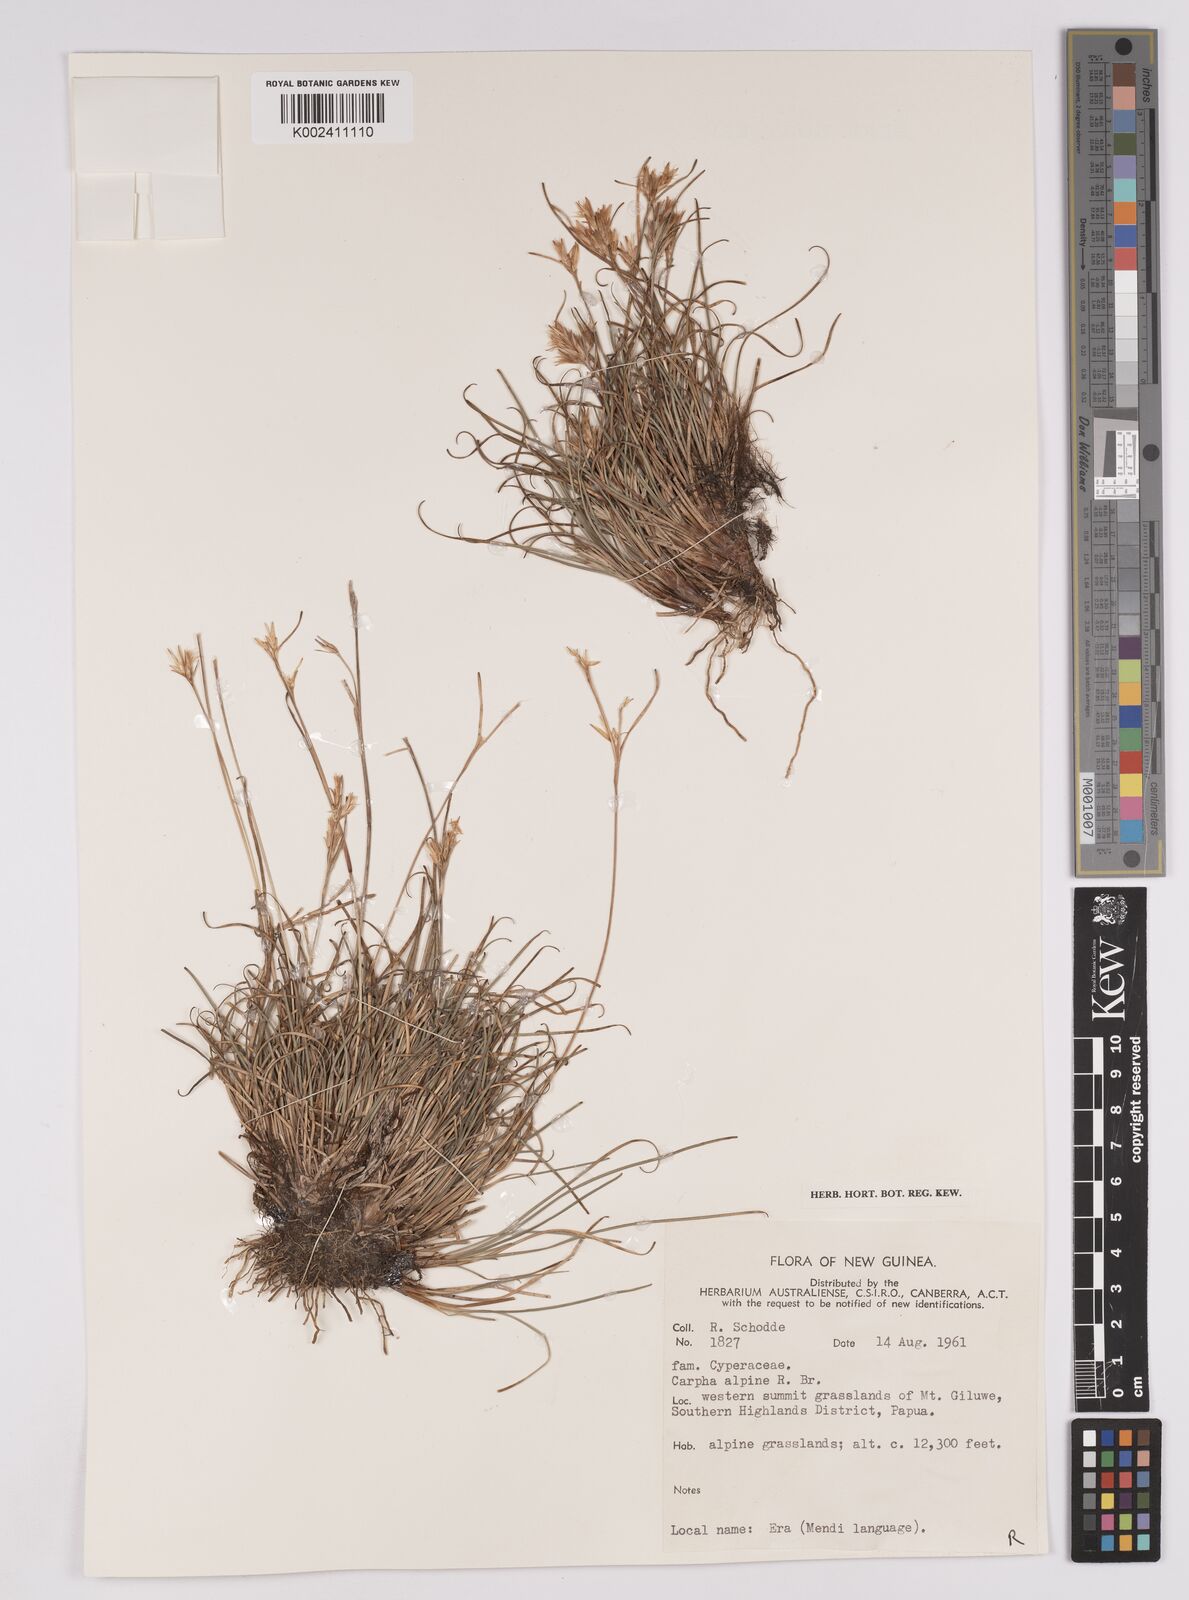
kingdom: Plantae
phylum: Tracheophyta
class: Liliopsida
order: Poales
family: Cyperaceae
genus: Carpha
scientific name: Carpha alpina
